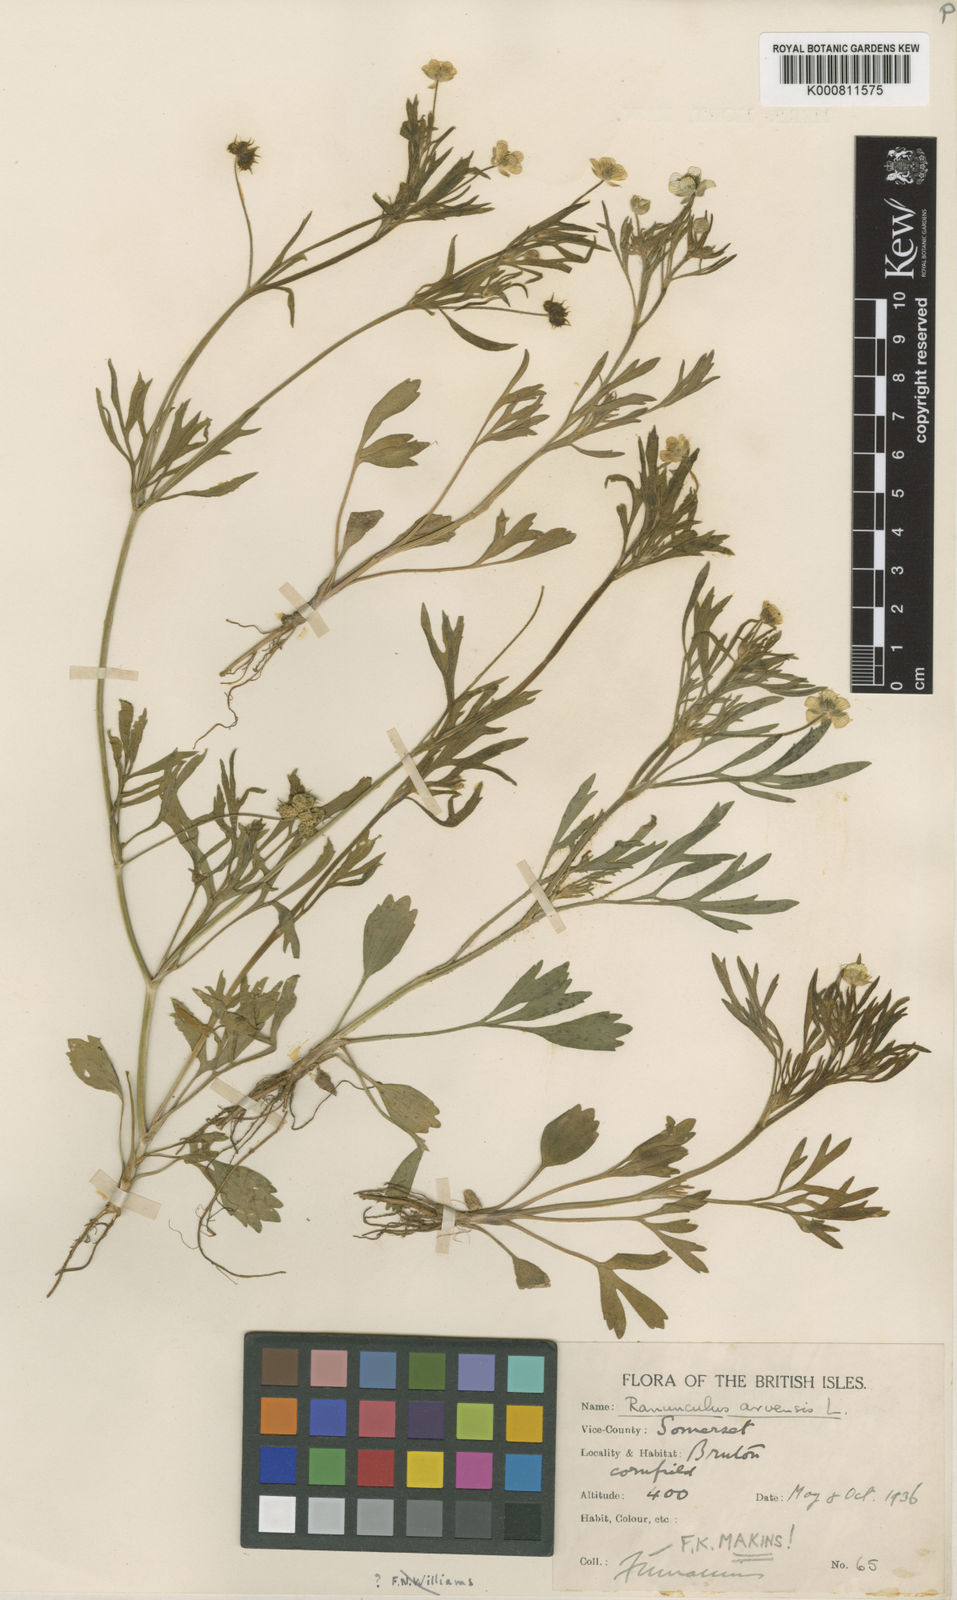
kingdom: Plantae
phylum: Tracheophyta
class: Magnoliopsida
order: Ranunculales
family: Ranunculaceae
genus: Ranunculus
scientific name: Ranunculus arvensis
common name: Corn buttercup
